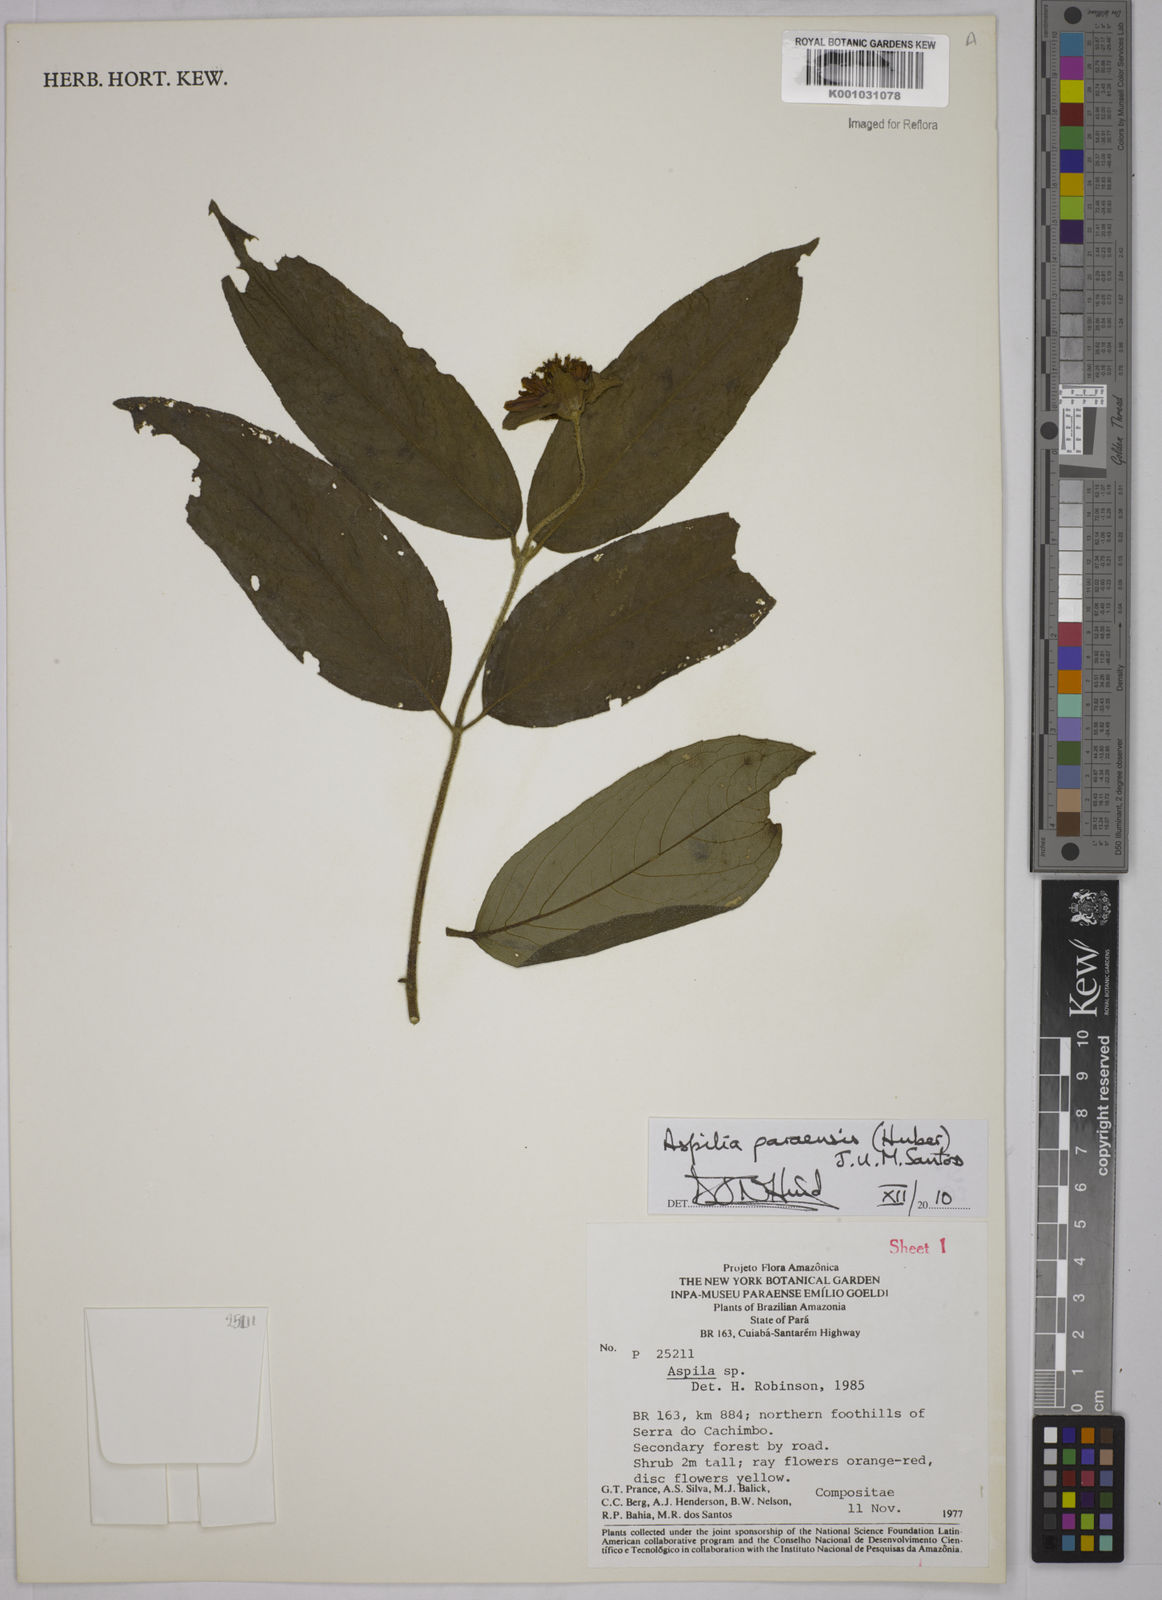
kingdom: Plantae
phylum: Tracheophyta
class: Magnoliopsida
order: Asterales
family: Asteraceae
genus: Aspilia
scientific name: Aspilia paraensis
